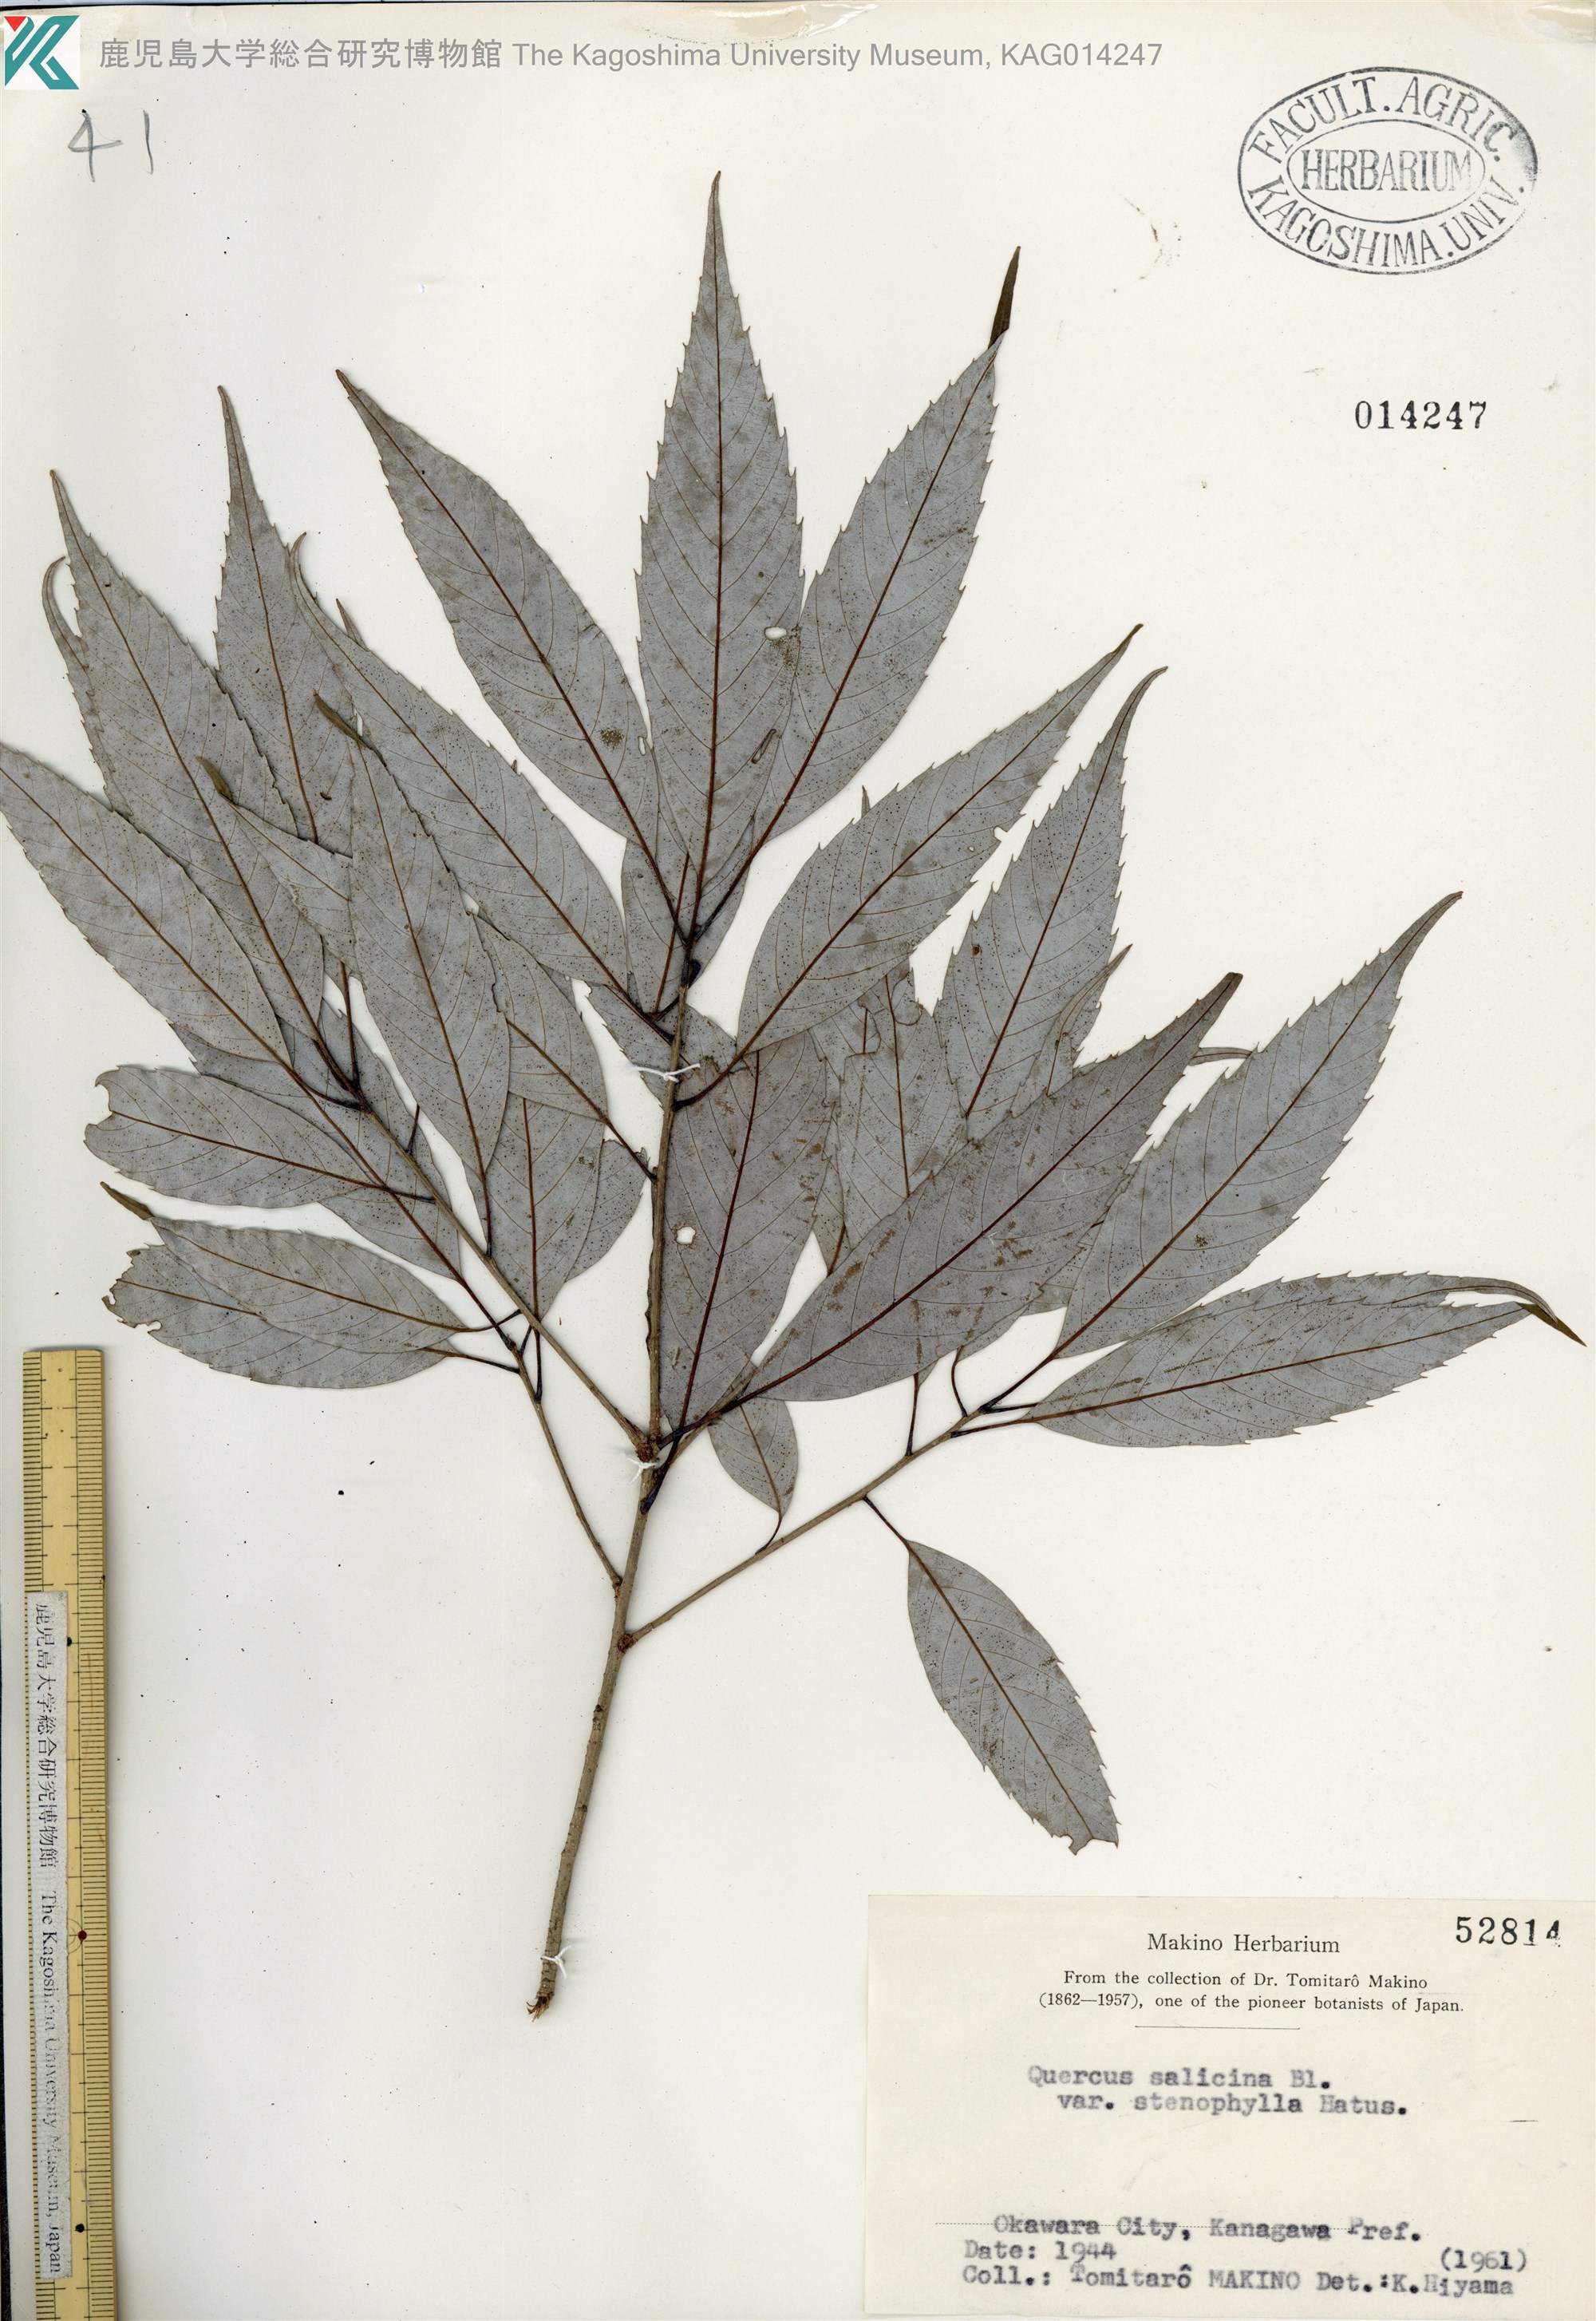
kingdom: Plantae
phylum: Tracheophyta
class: Magnoliopsida
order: Fagales
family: Fagaceae
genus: Quercus
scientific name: Quercus salicina
